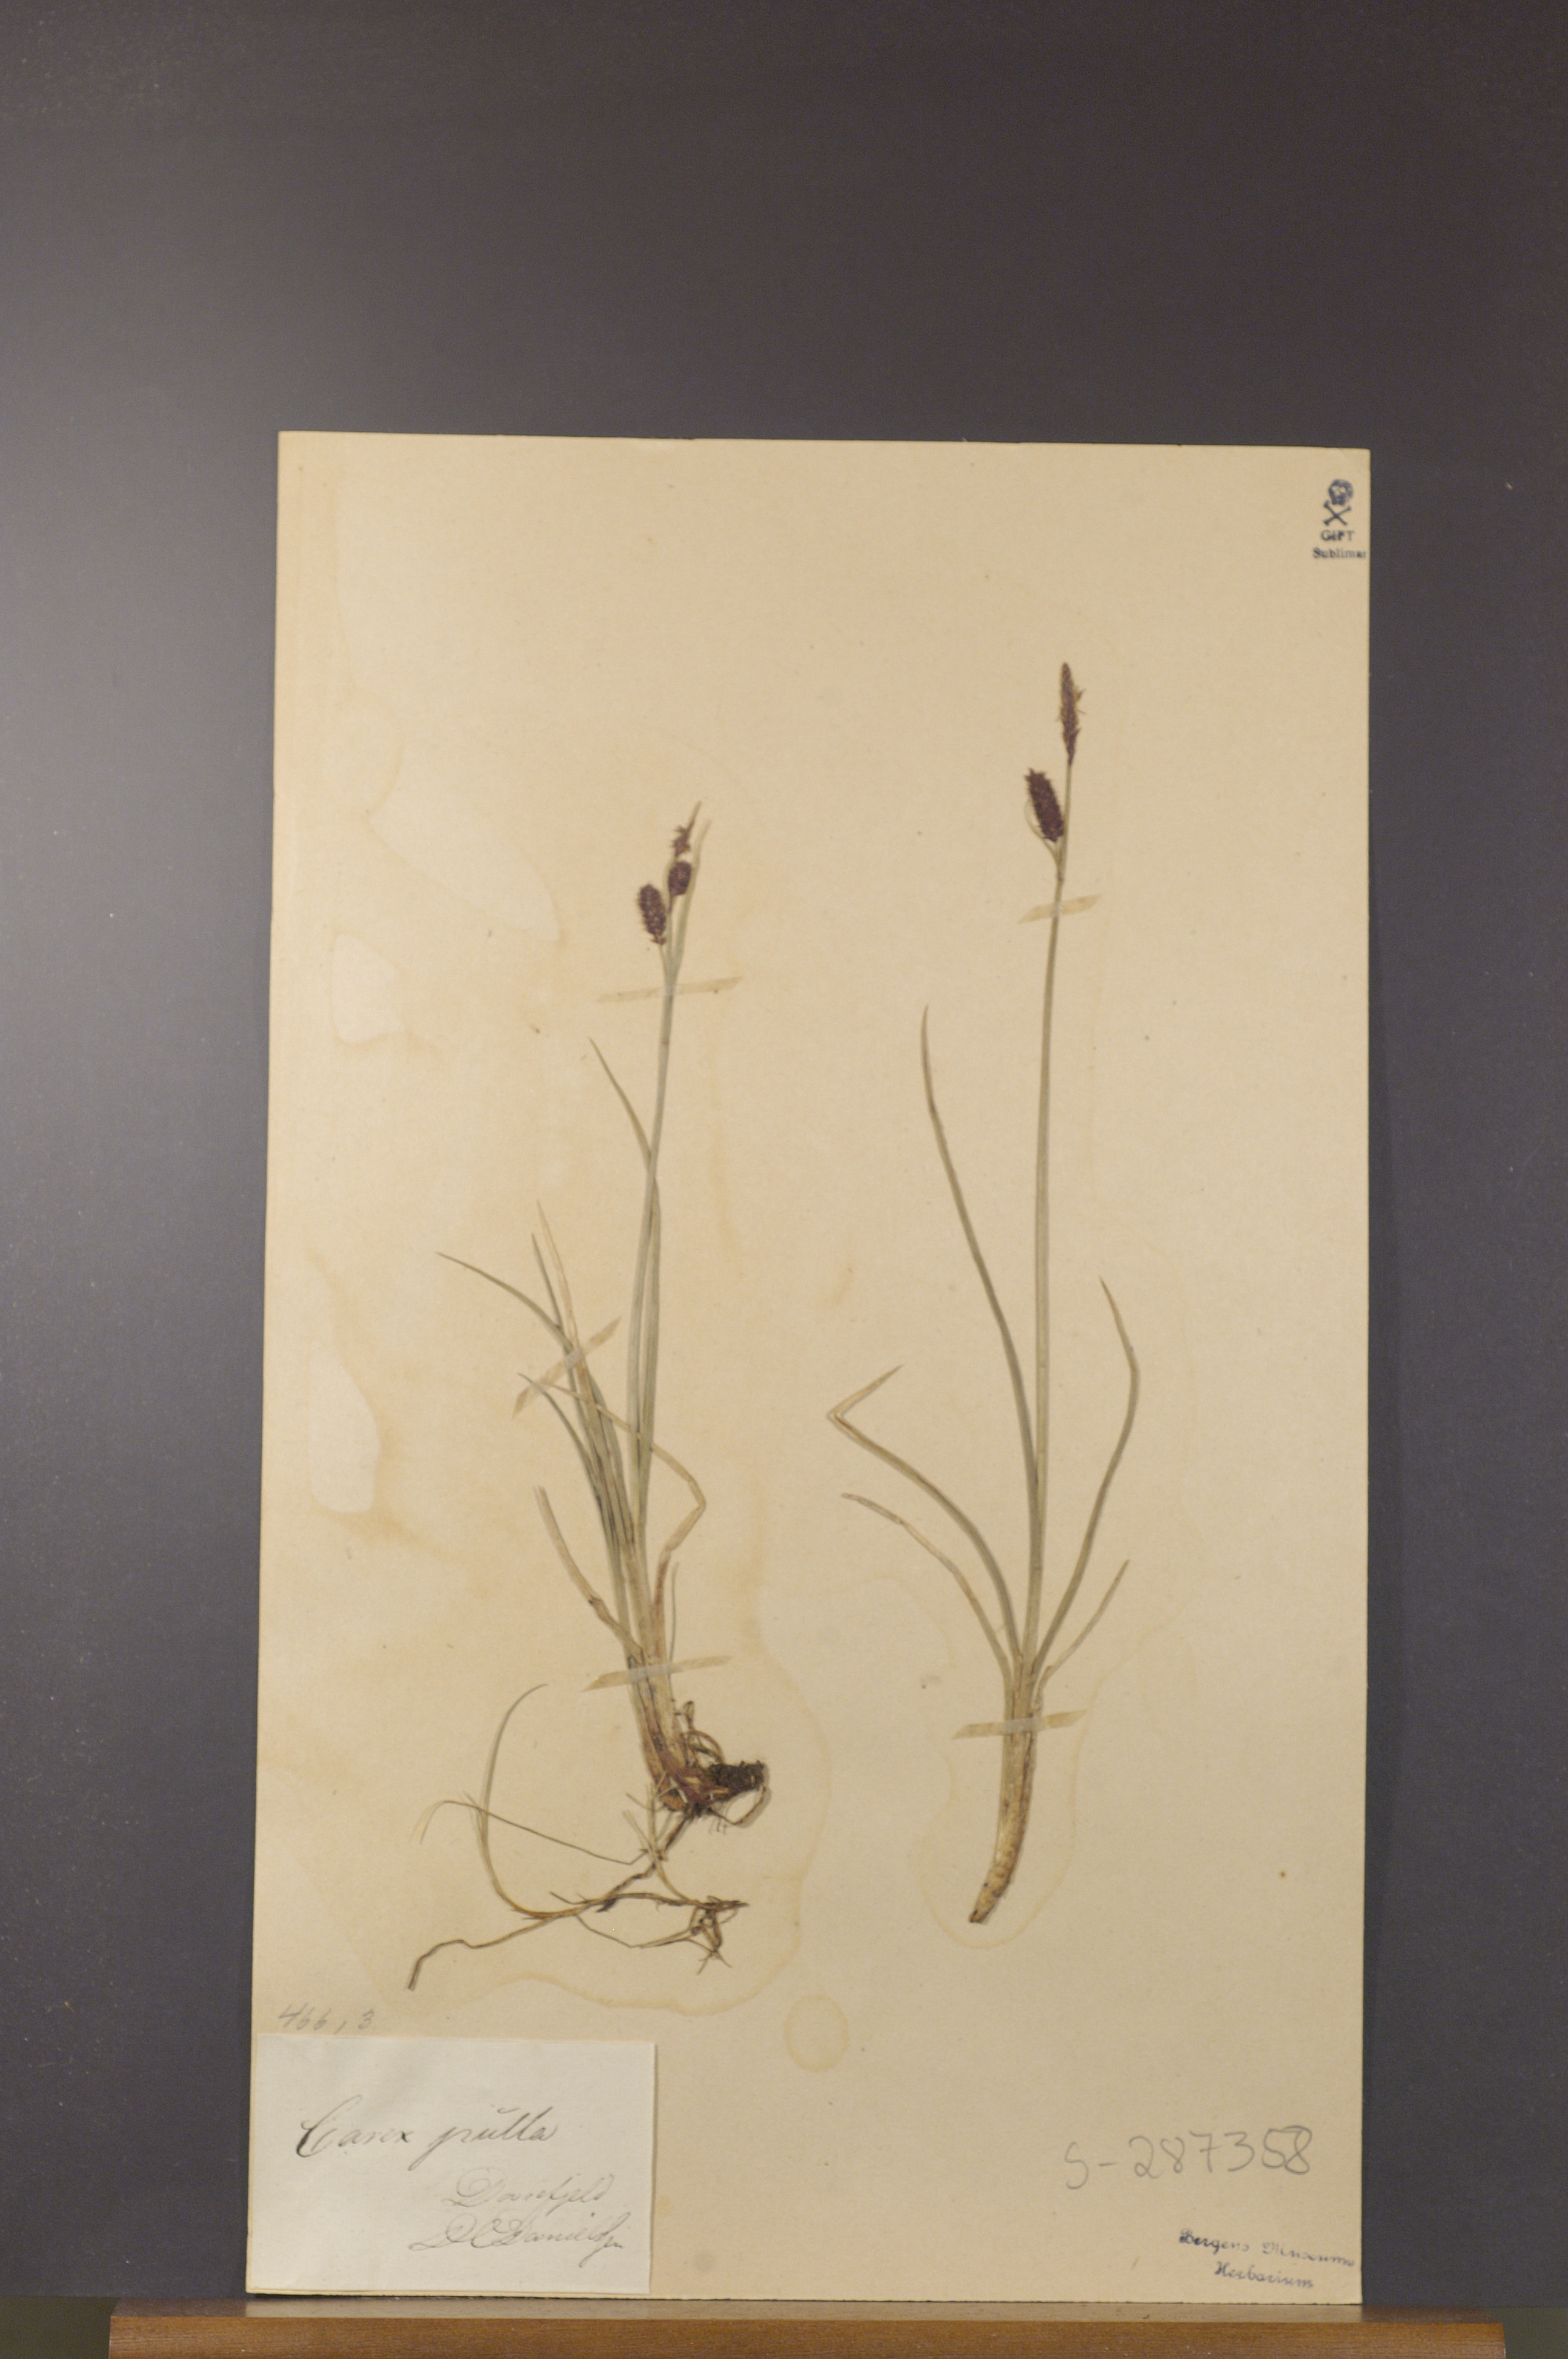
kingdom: Plantae
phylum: Tracheophyta
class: Liliopsida
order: Poales
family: Cyperaceae
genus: Carex
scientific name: Carex saxatilis
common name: Russet sedge
